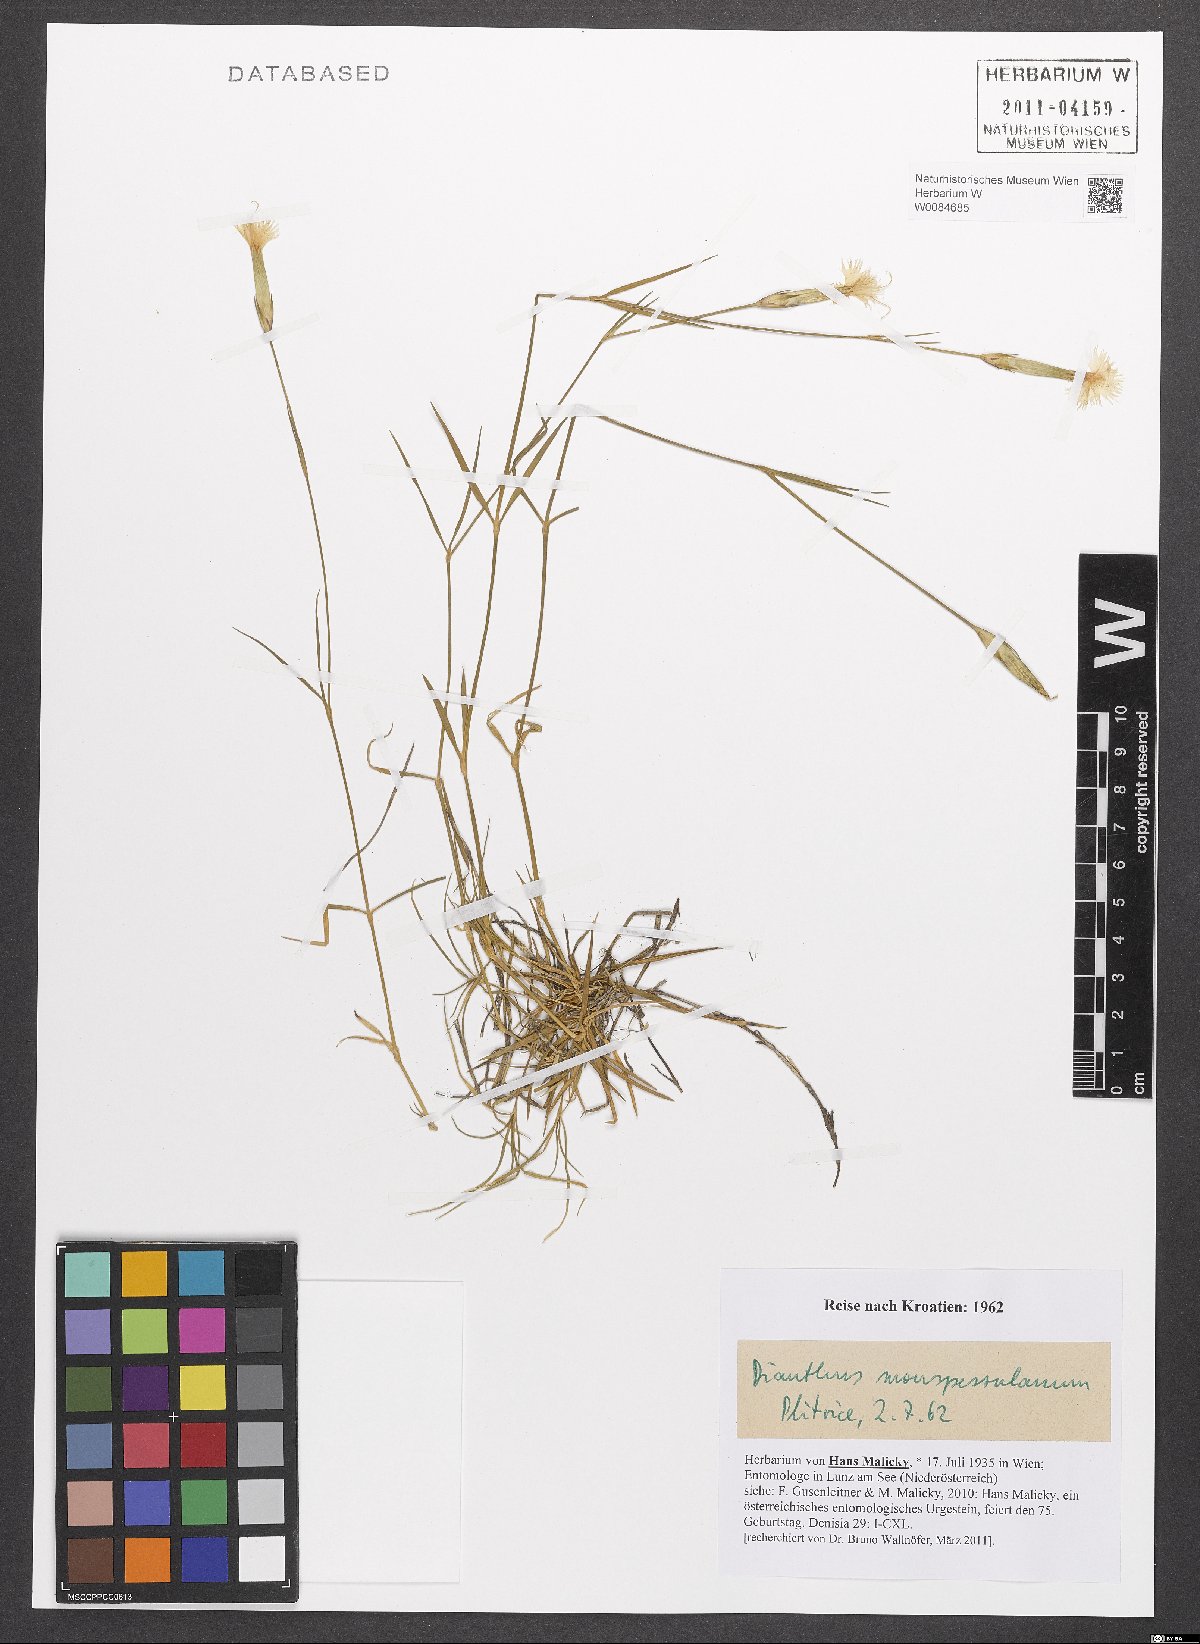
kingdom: Plantae
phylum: Tracheophyta
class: Magnoliopsida
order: Caryophyllales
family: Caryophyllaceae
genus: Dianthus
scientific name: Dianthus hyssopifolius
